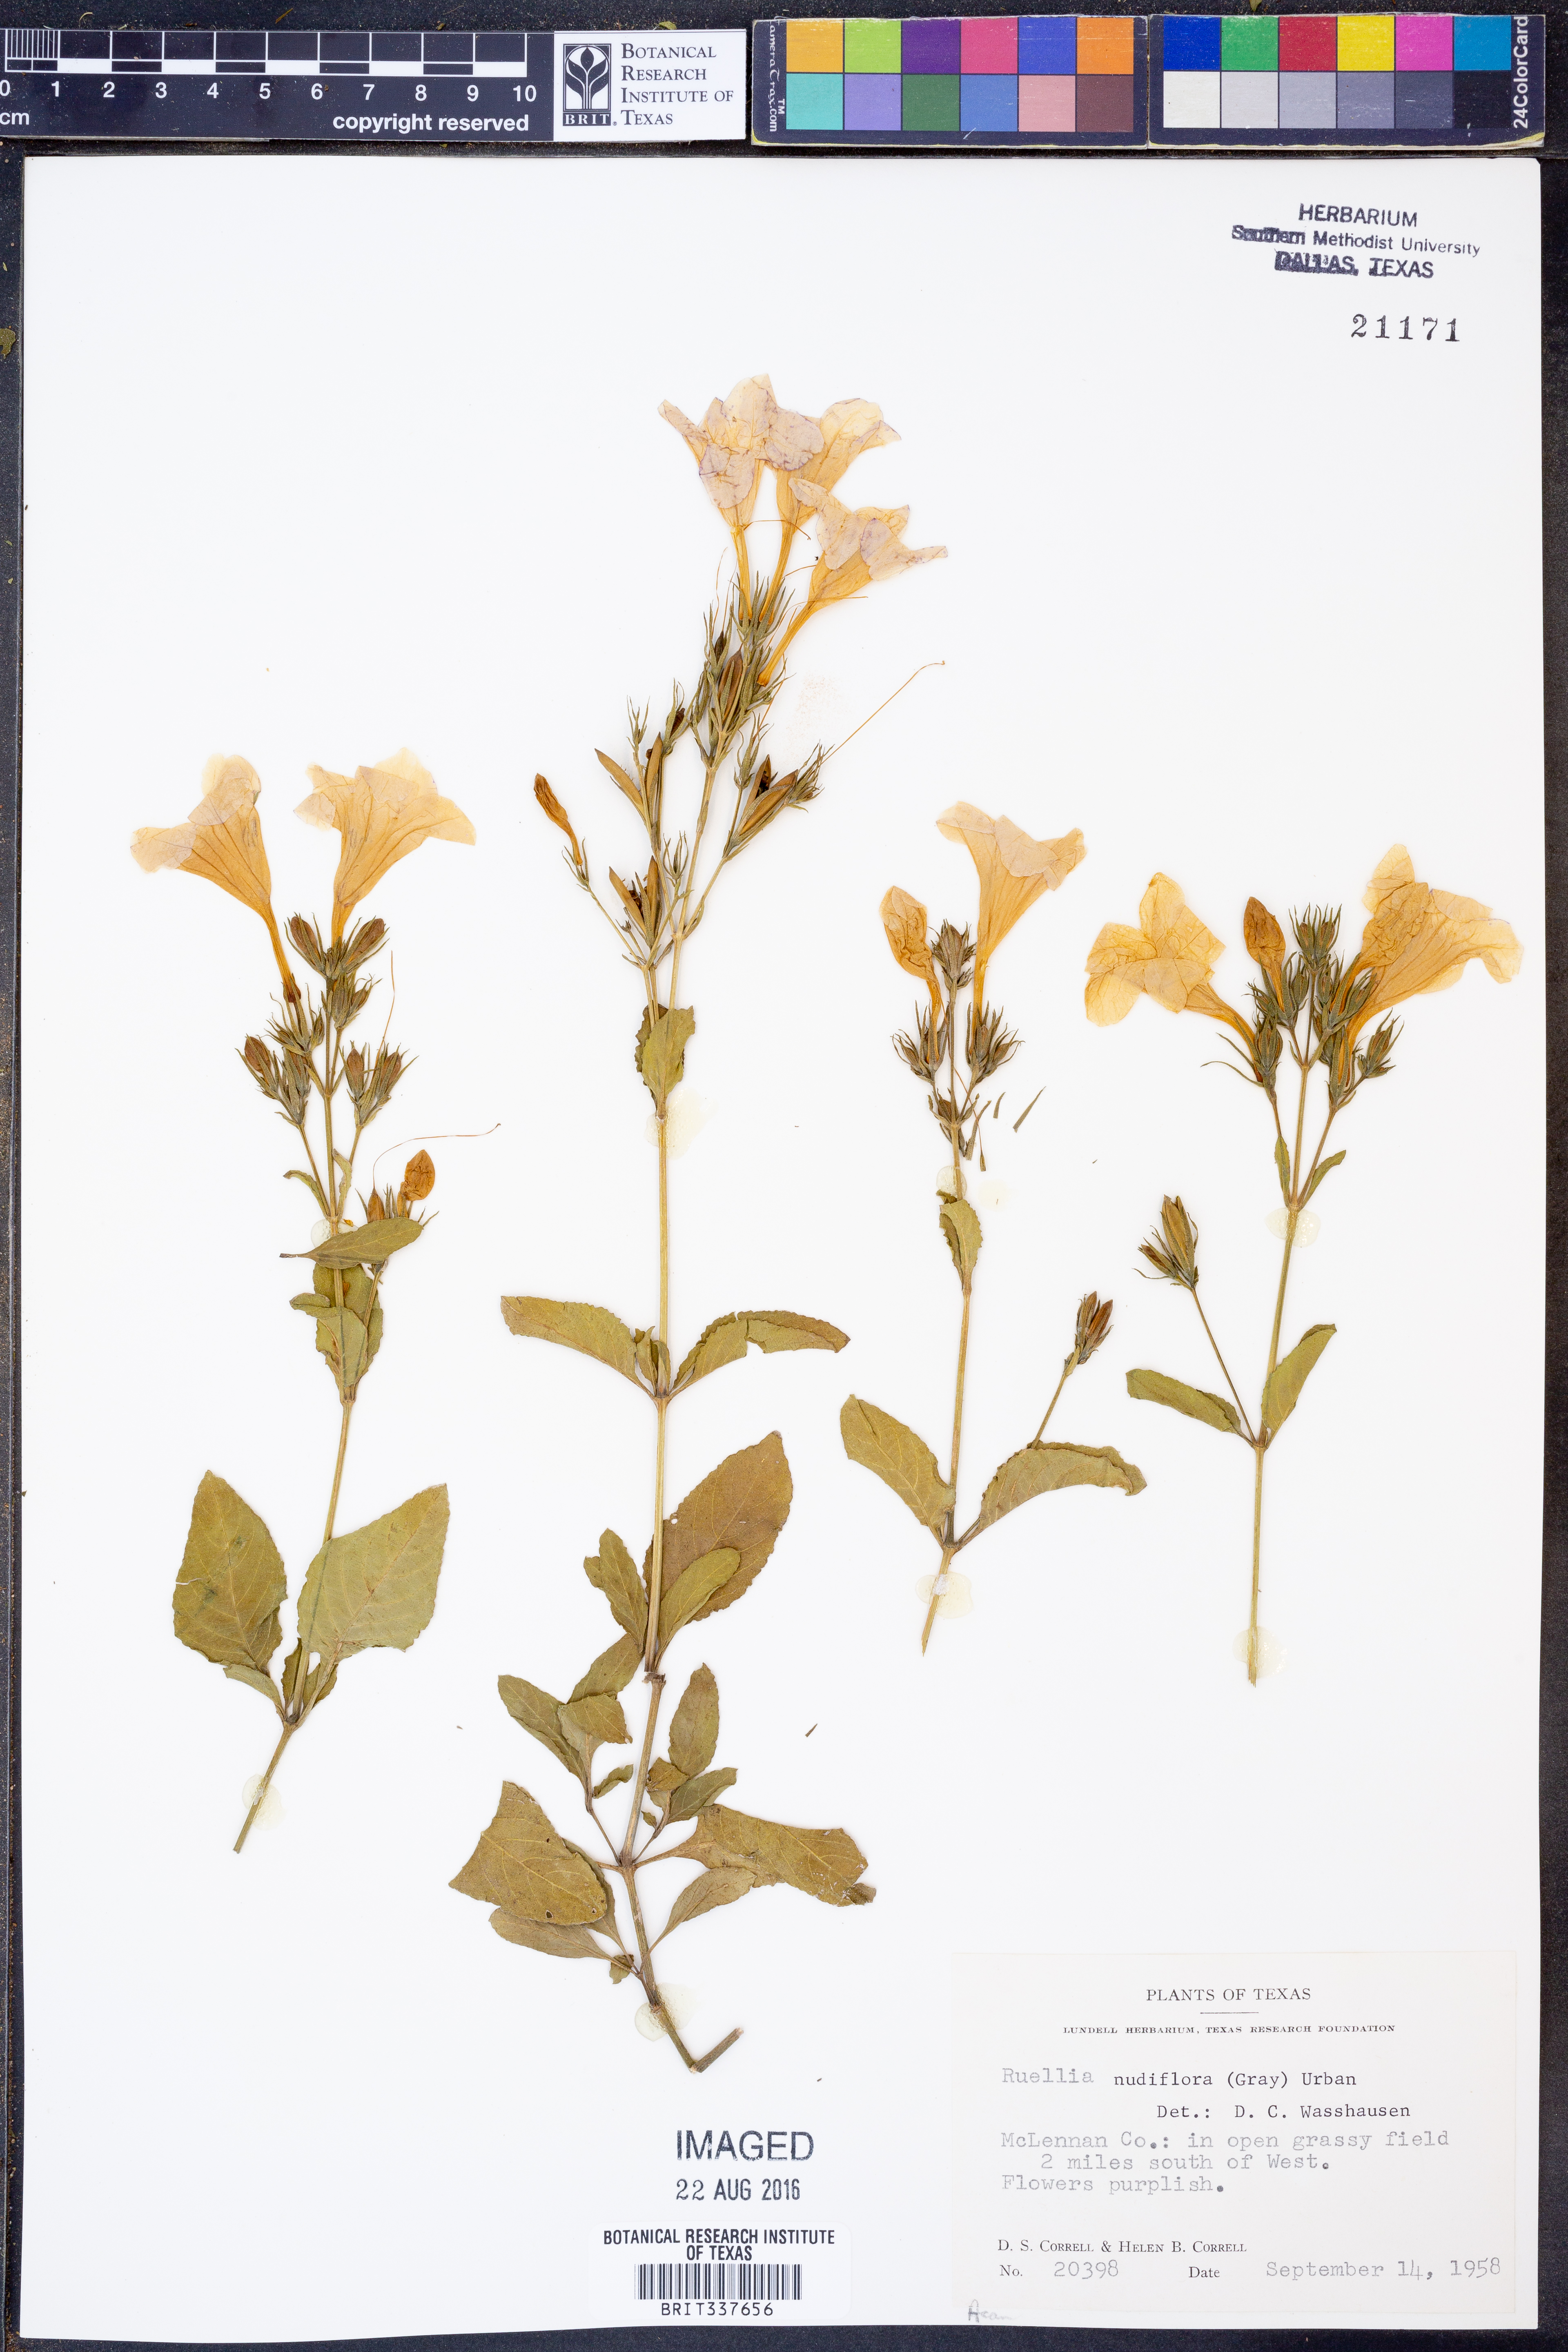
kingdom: Plantae
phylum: Tracheophyta
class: Magnoliopsida
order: Lamiales
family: Acanthaceae
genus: Ruellia
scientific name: Ruellia ciliatiflora
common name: Hairyflower wild petunia
